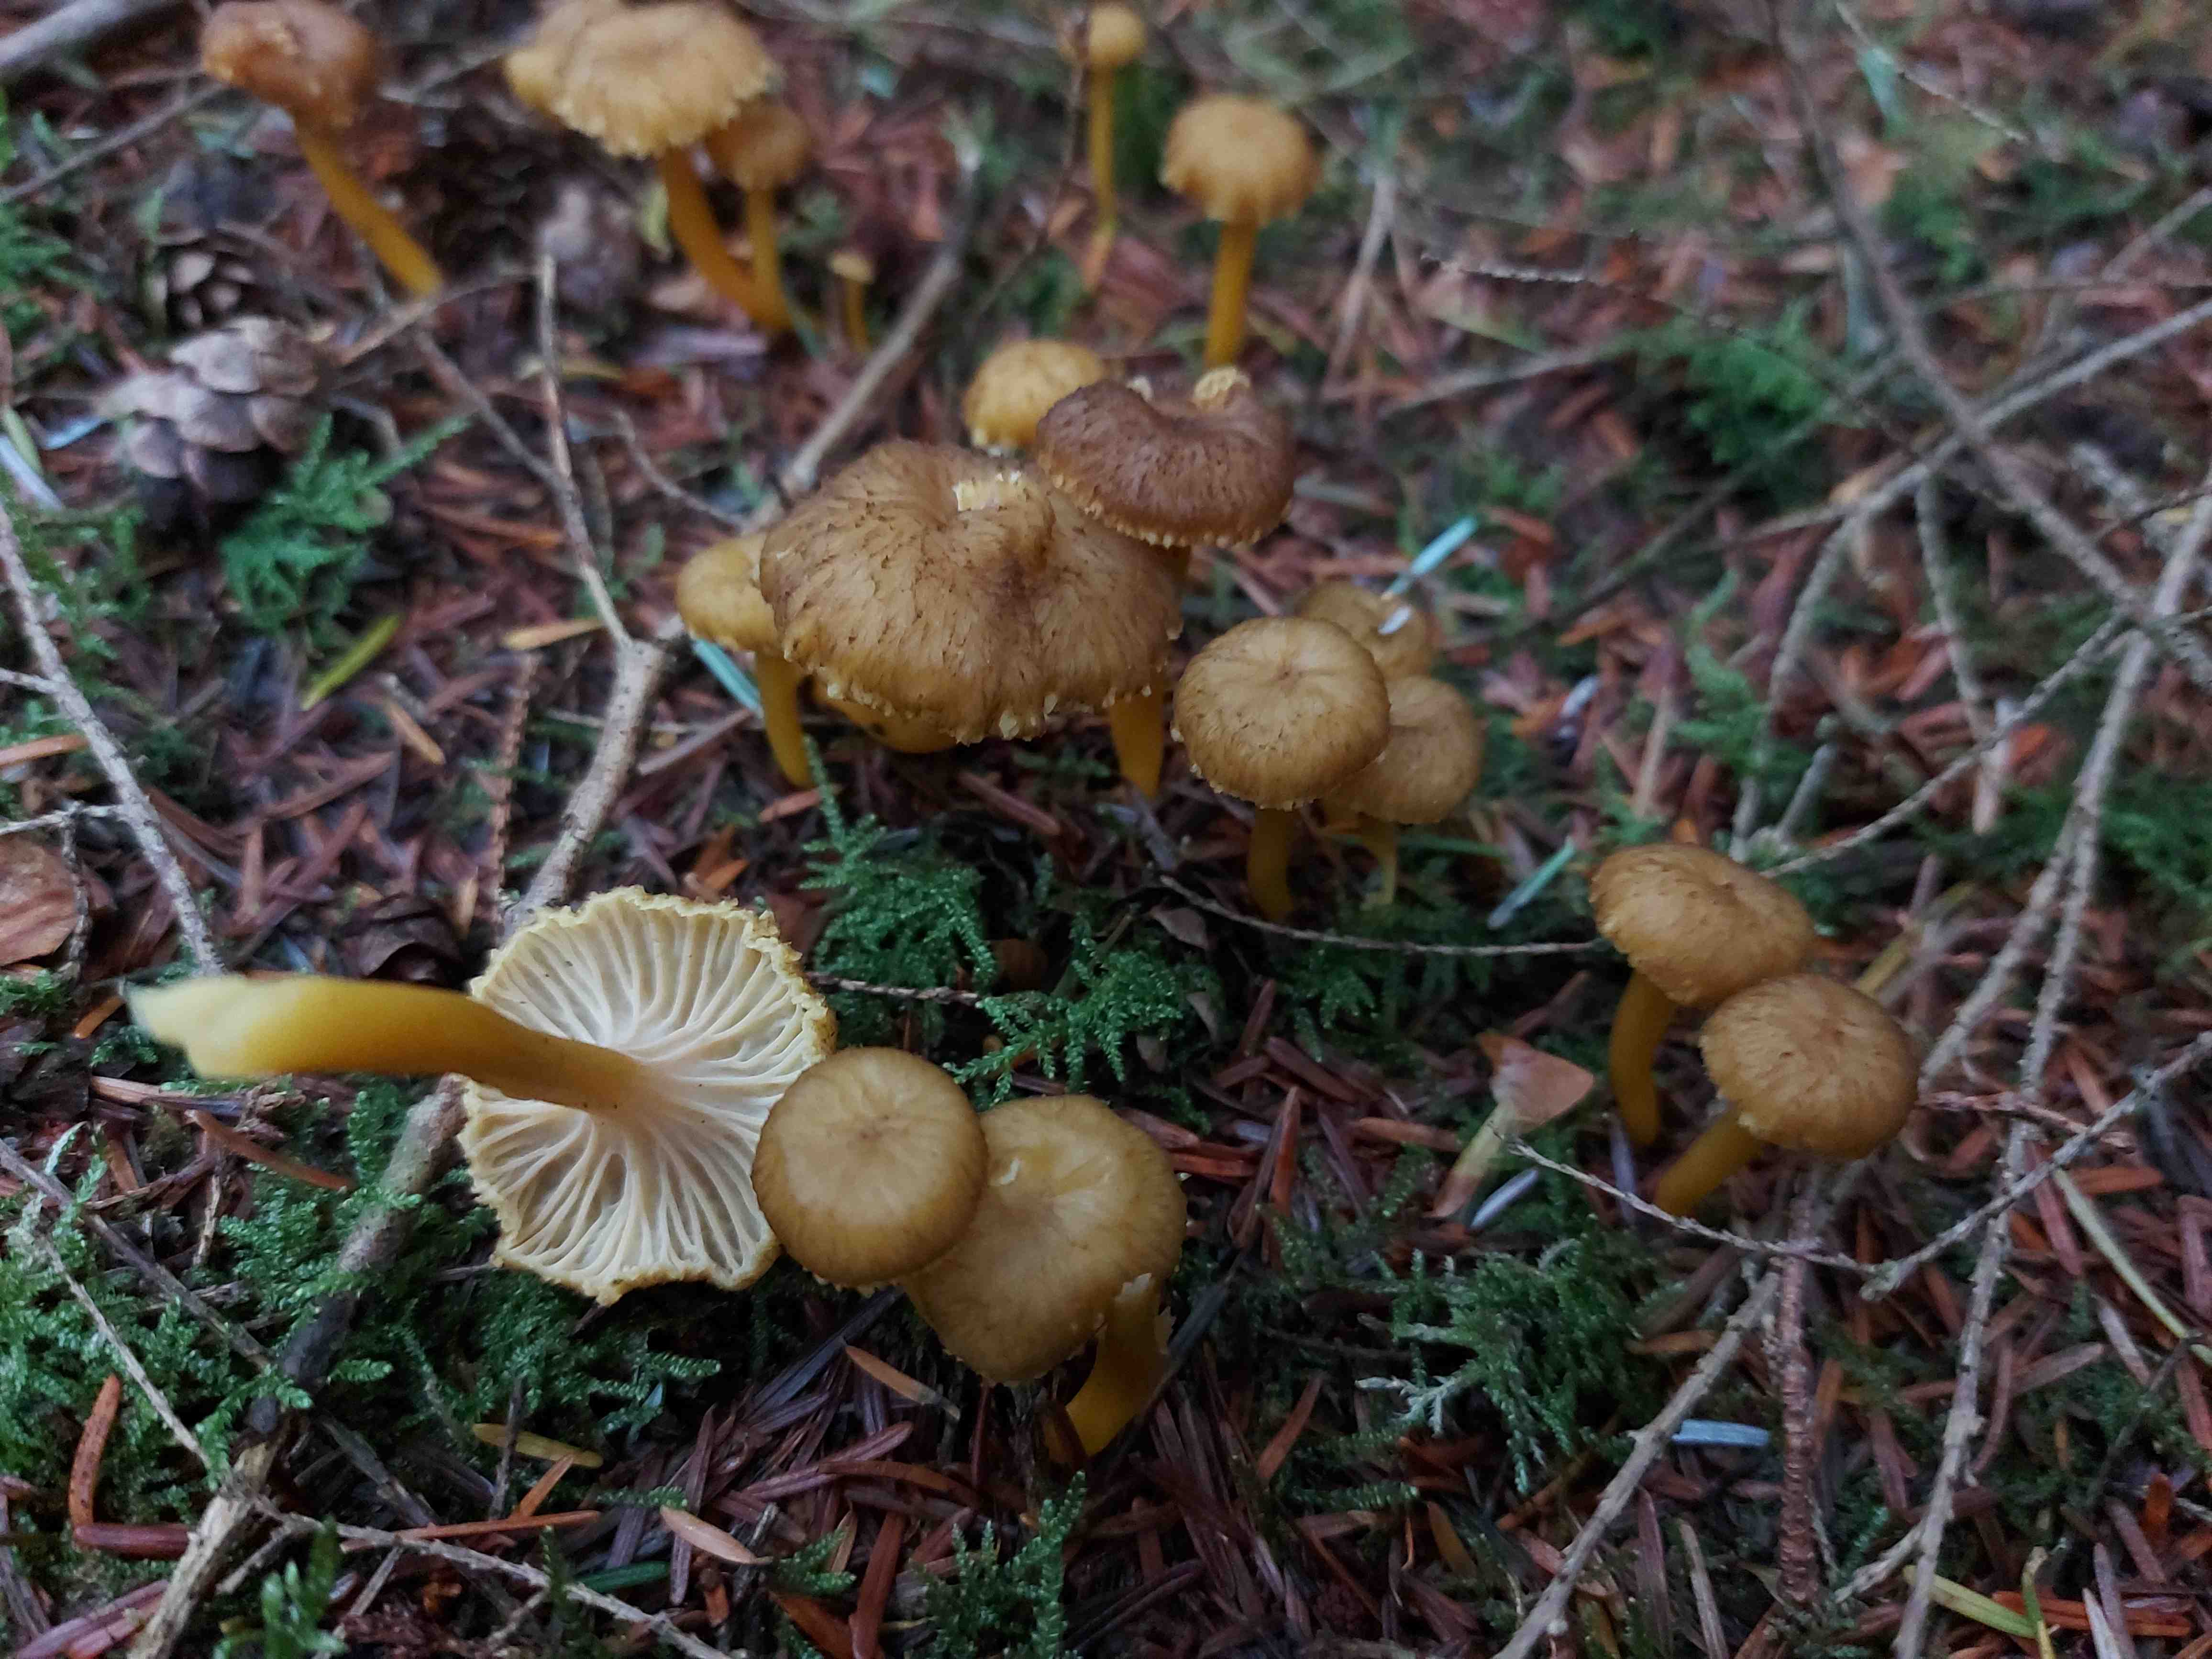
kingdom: Fungi
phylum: Basidiomycota
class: Agaricomycetes
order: Cantharellales
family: Hydnaceae
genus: Craterellus
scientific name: Craterellus tubaeformis
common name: tragt-kantarel
